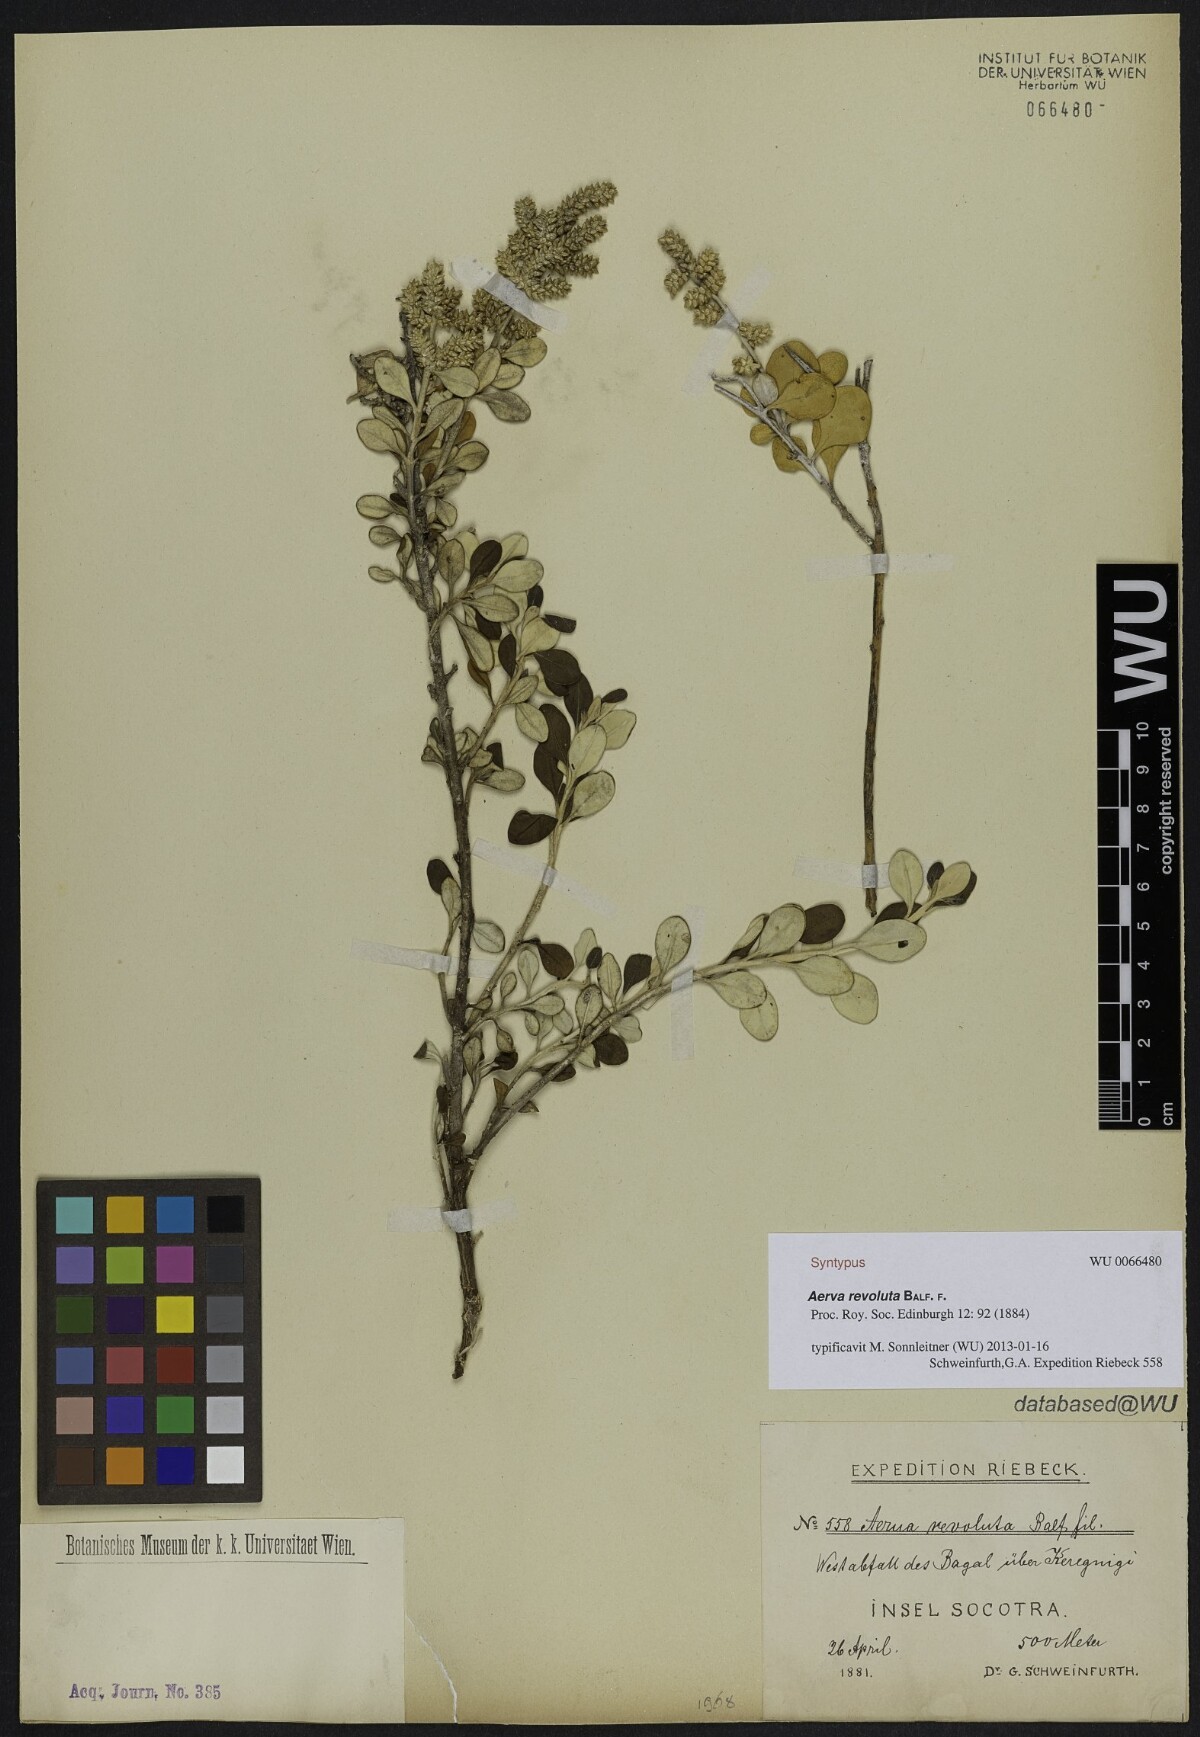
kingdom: Plantae
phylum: Tracheophyta
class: Magnoliopsida
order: Caryophyllales
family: Amaranthaceae
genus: Paraerva
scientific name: Paraerva revoluta
